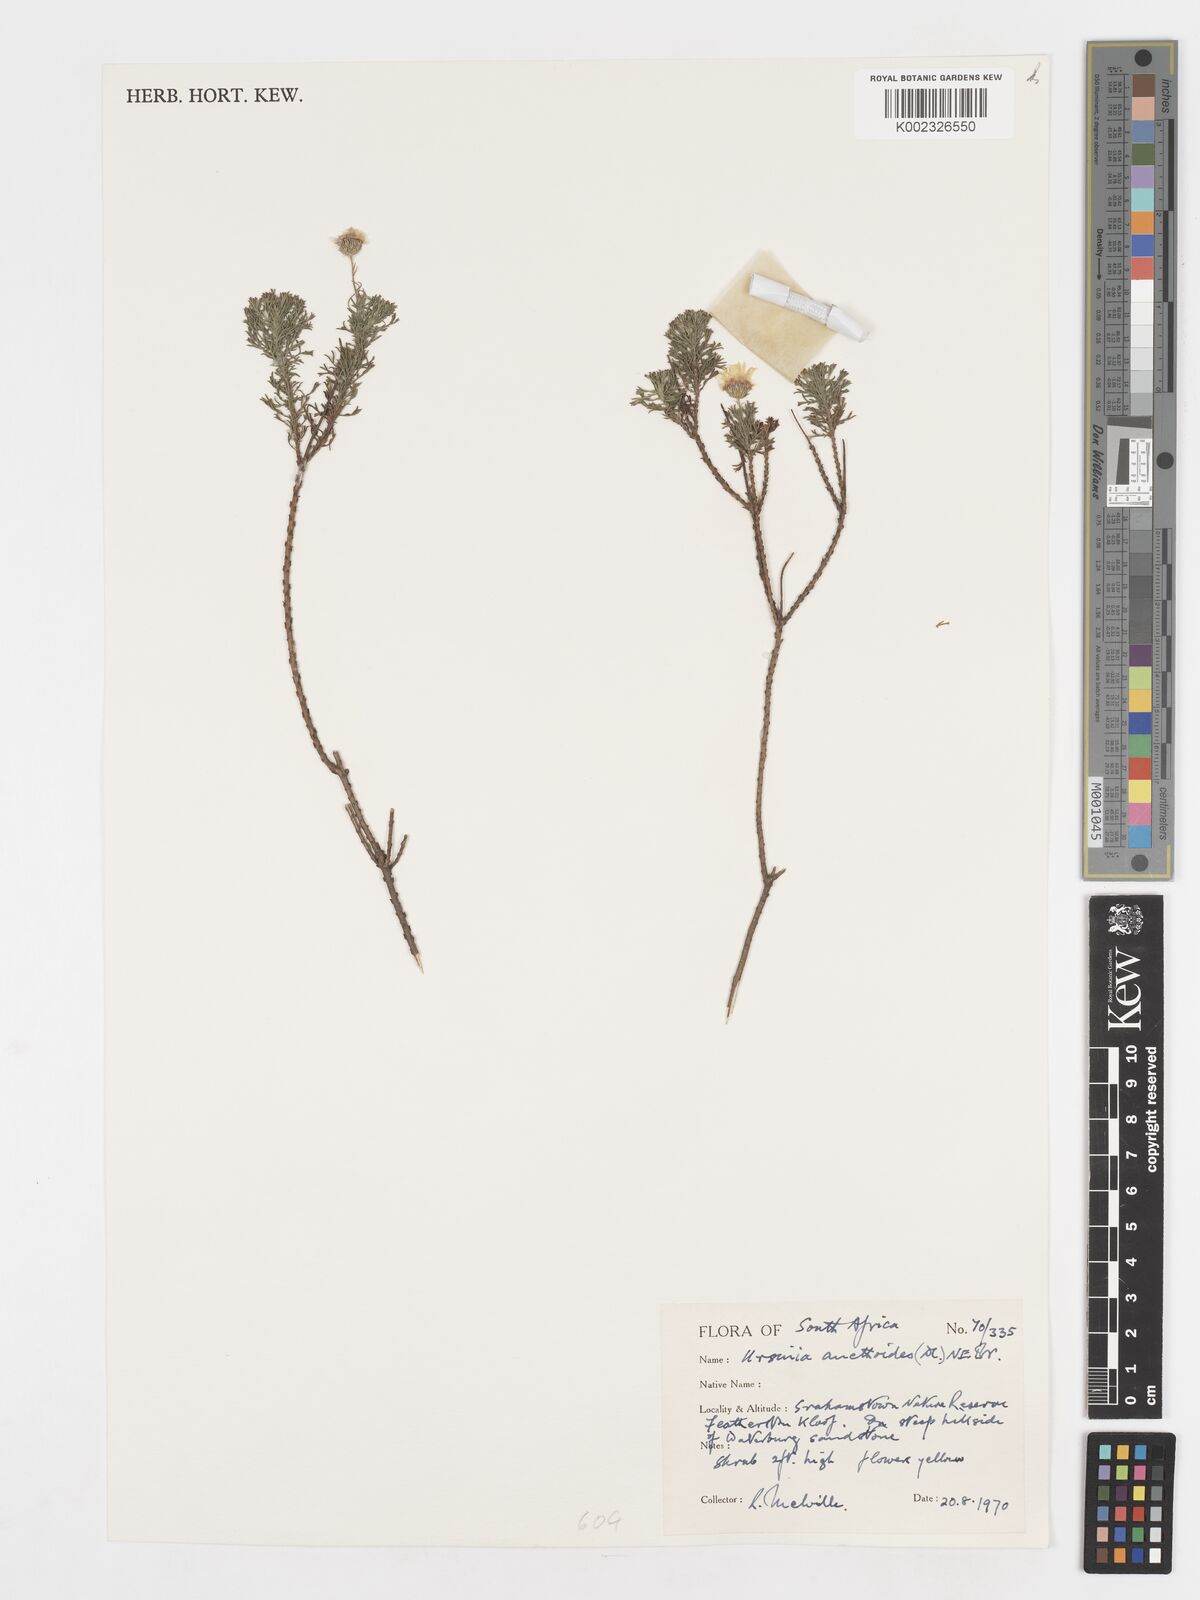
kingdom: Plantae
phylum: Tracheophyta
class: Magnoliopsida
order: Asterales
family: Asteraceae
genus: Ursinia
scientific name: Ursinia anethoides
